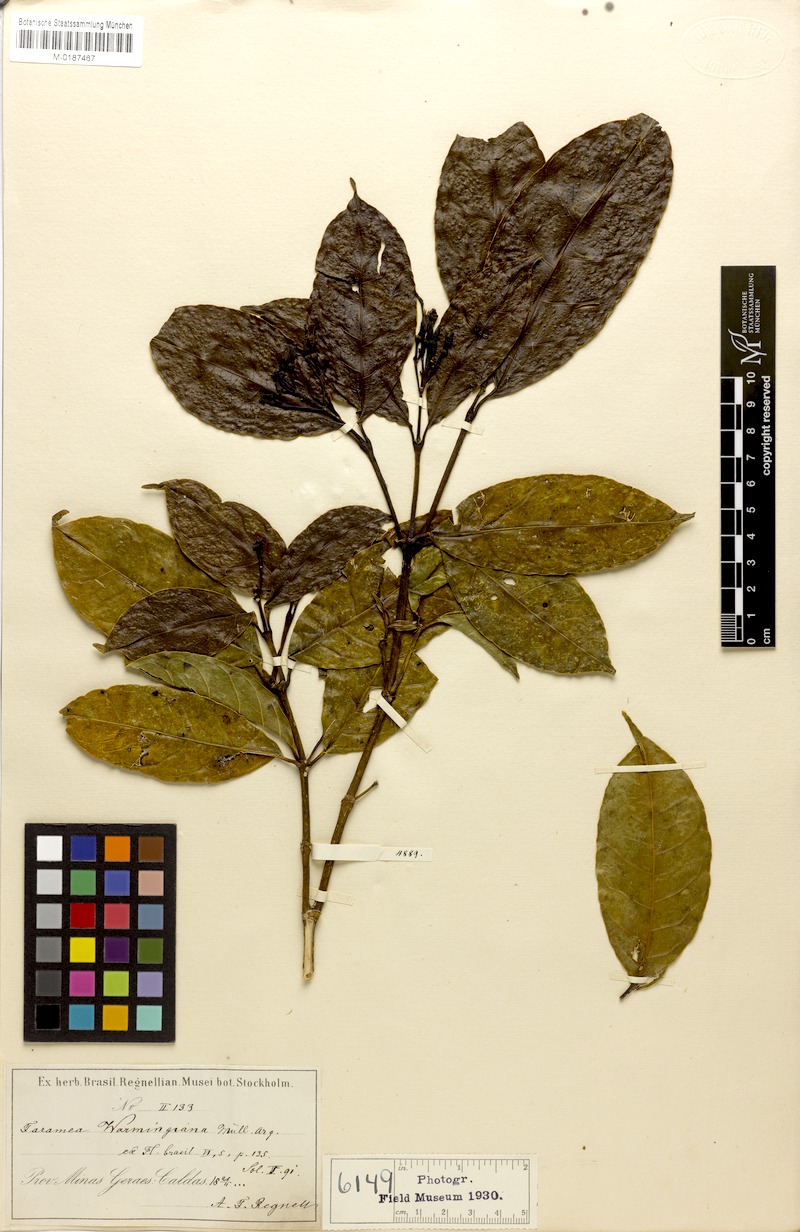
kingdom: Plantae
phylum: Tracheophyta
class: Magnoliopsida
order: Gentianales
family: Rubiaceae
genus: Faramea
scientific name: Faramea nigrescens
